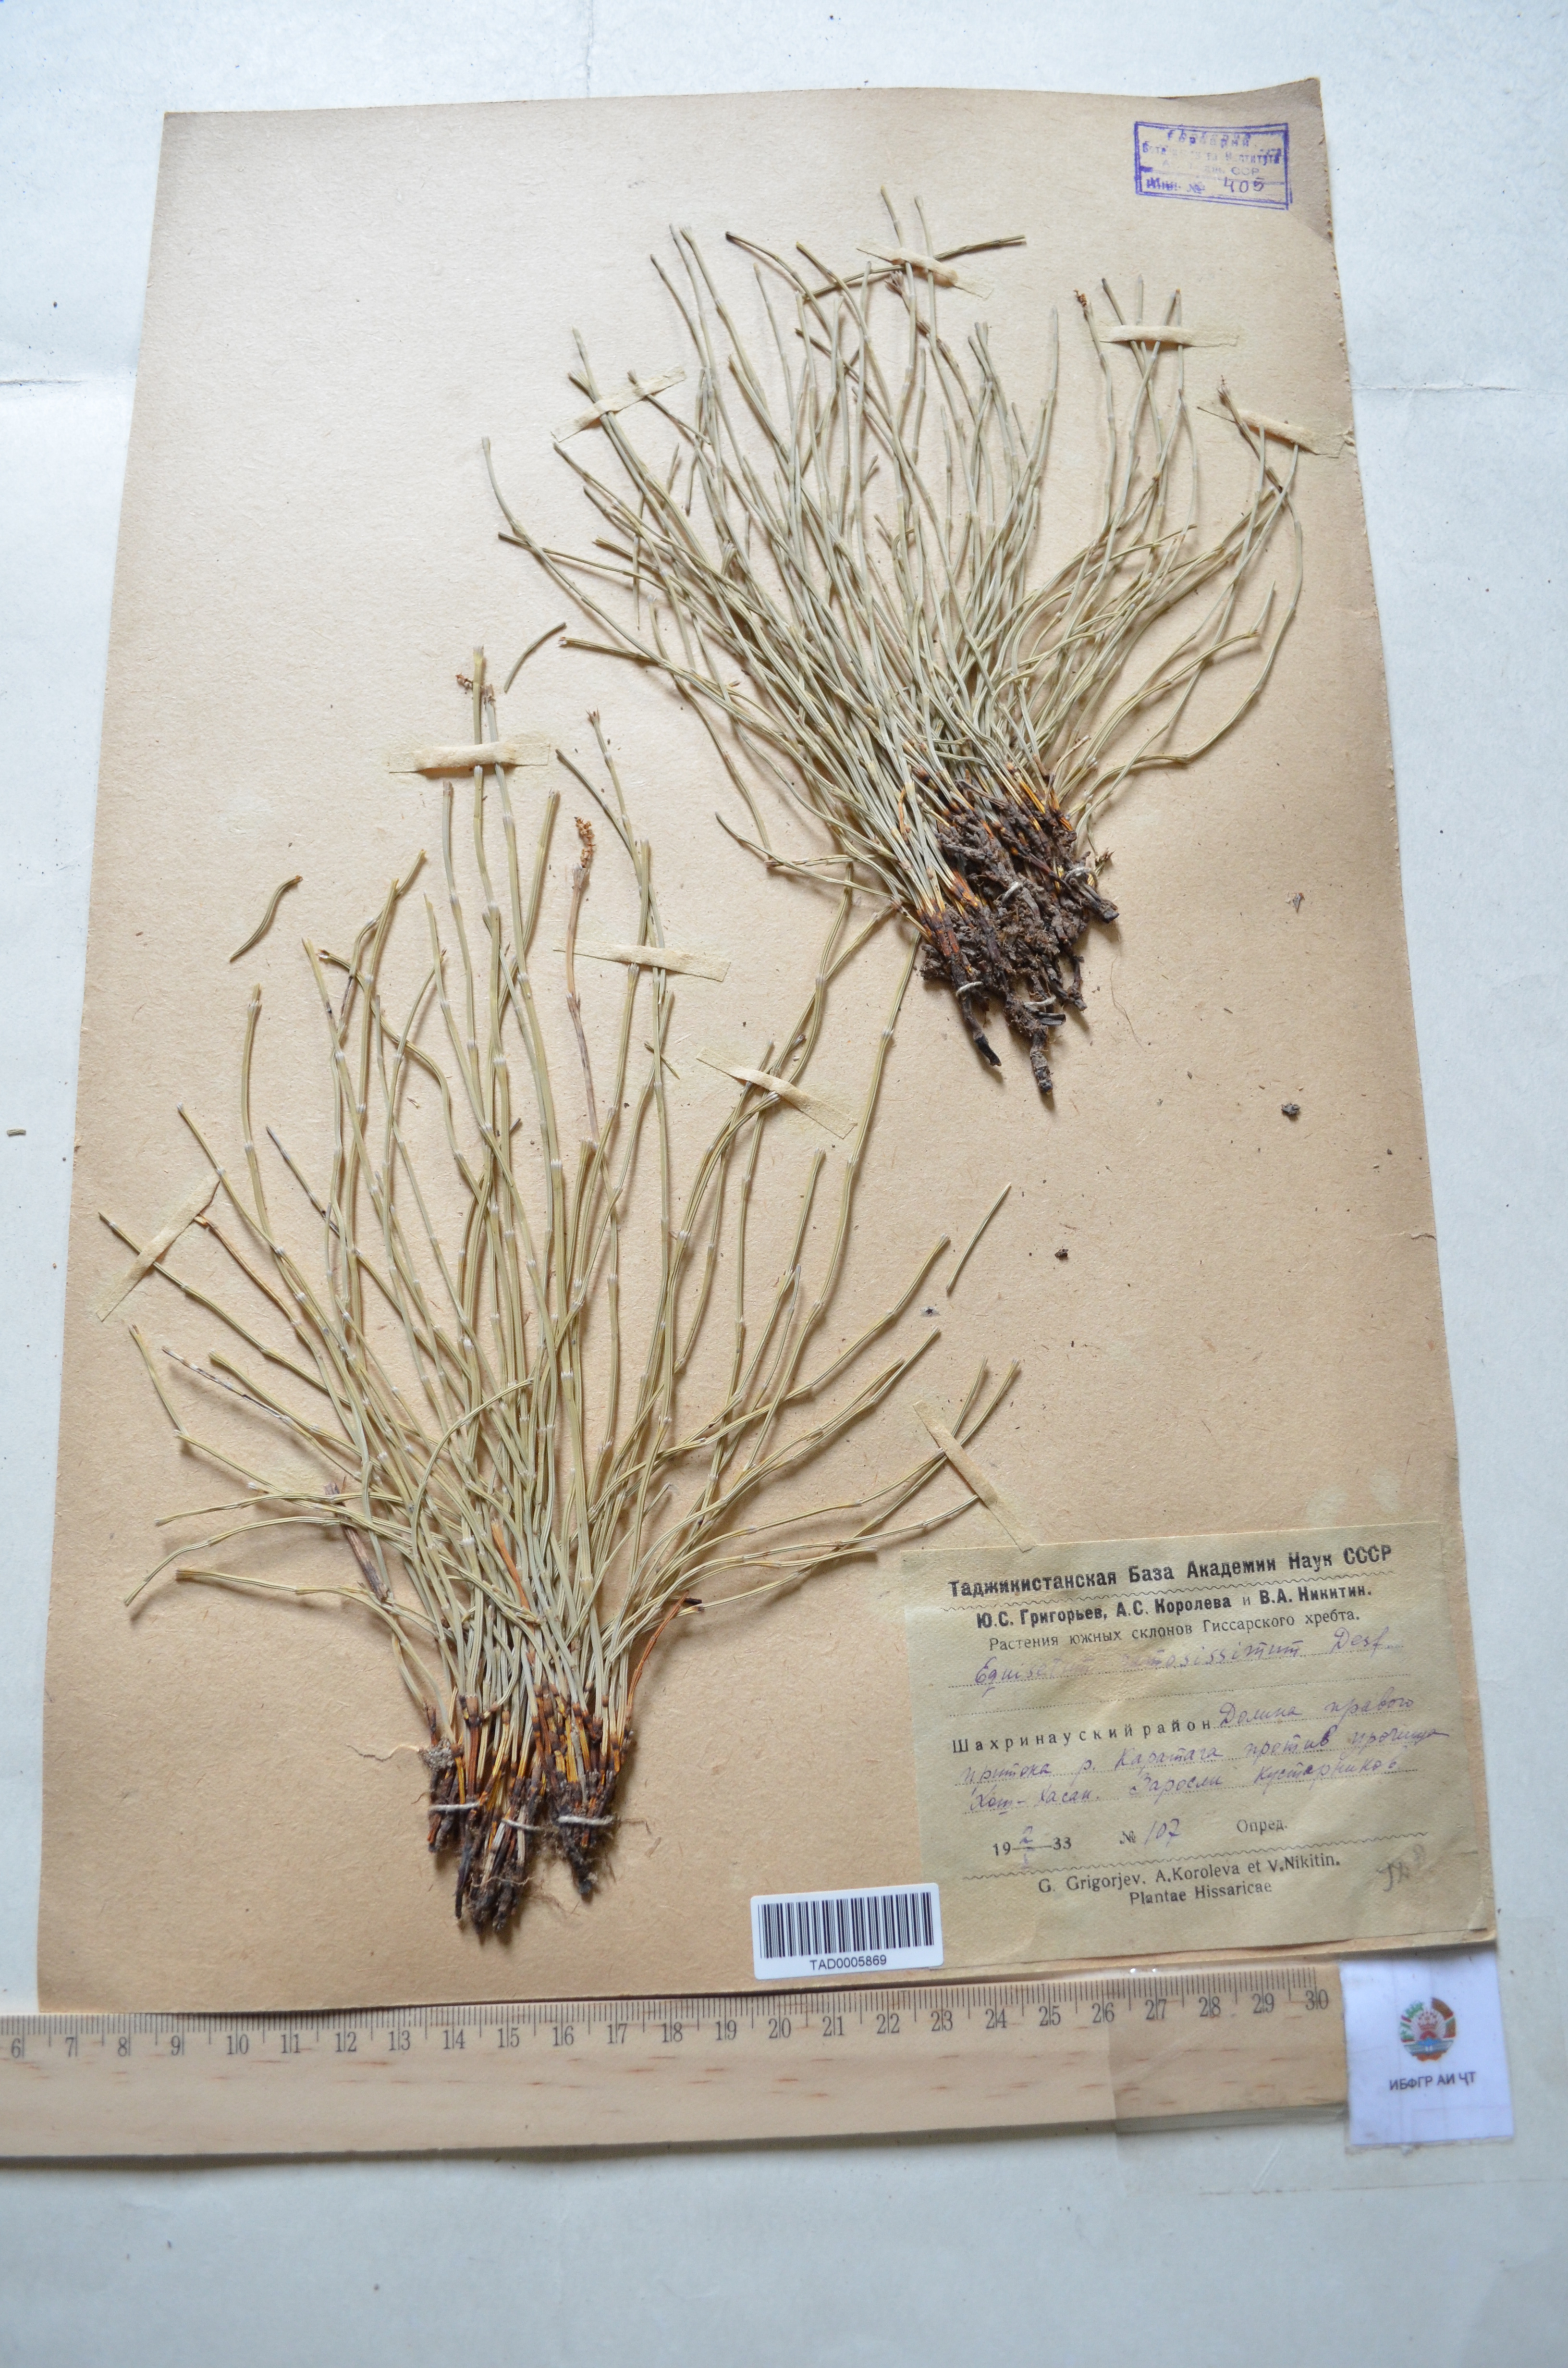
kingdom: Plantae
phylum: Tracheophyta
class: Polypodiopsida
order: Equisetales
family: Equisetaceae
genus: Equisetum
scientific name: Equisetum ramosissimum
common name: Branched horsetail
